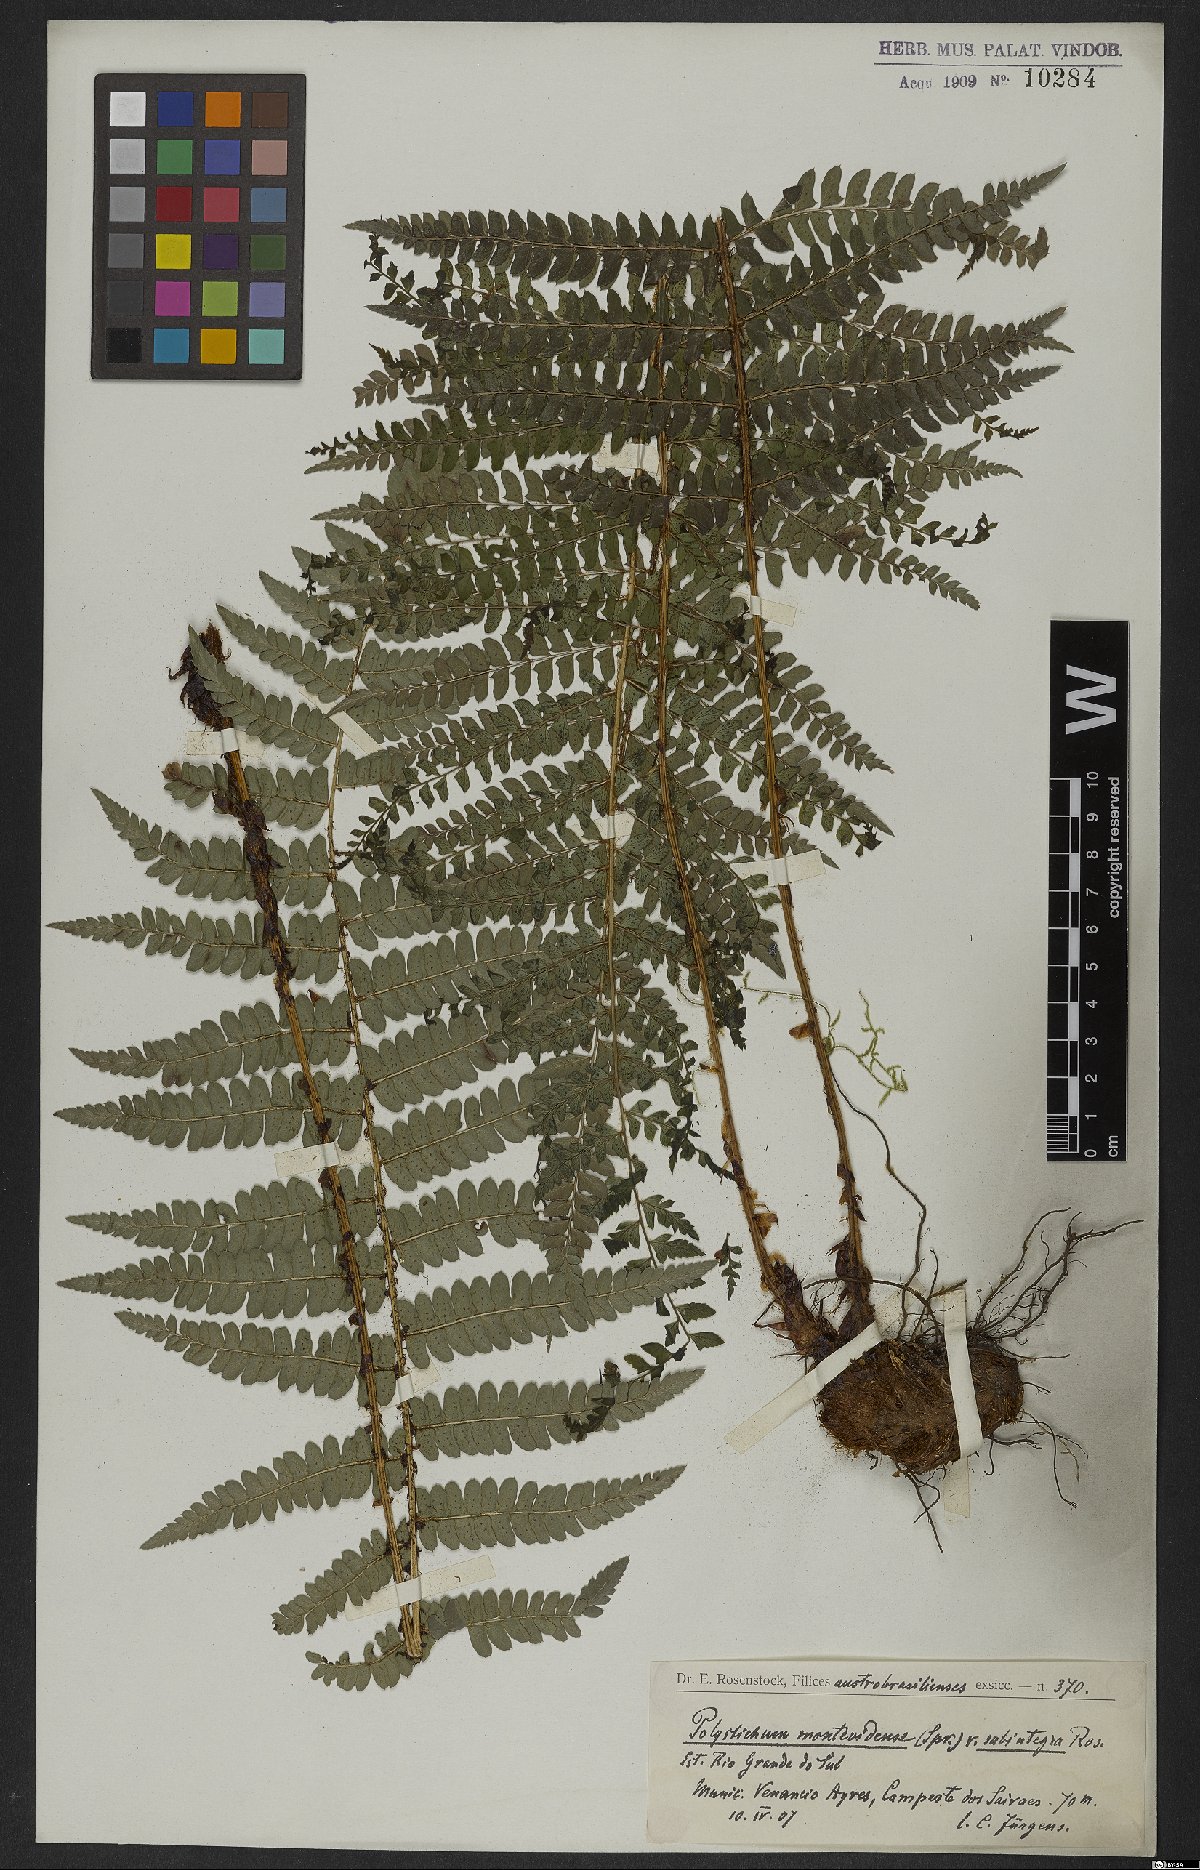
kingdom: Plantae
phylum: Tracheophyta
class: Polypodiopsida
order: Polypodiales
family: Dryopteridaceae
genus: Polystichum
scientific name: Polystichum aculeatum
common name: Hard shield-fern
